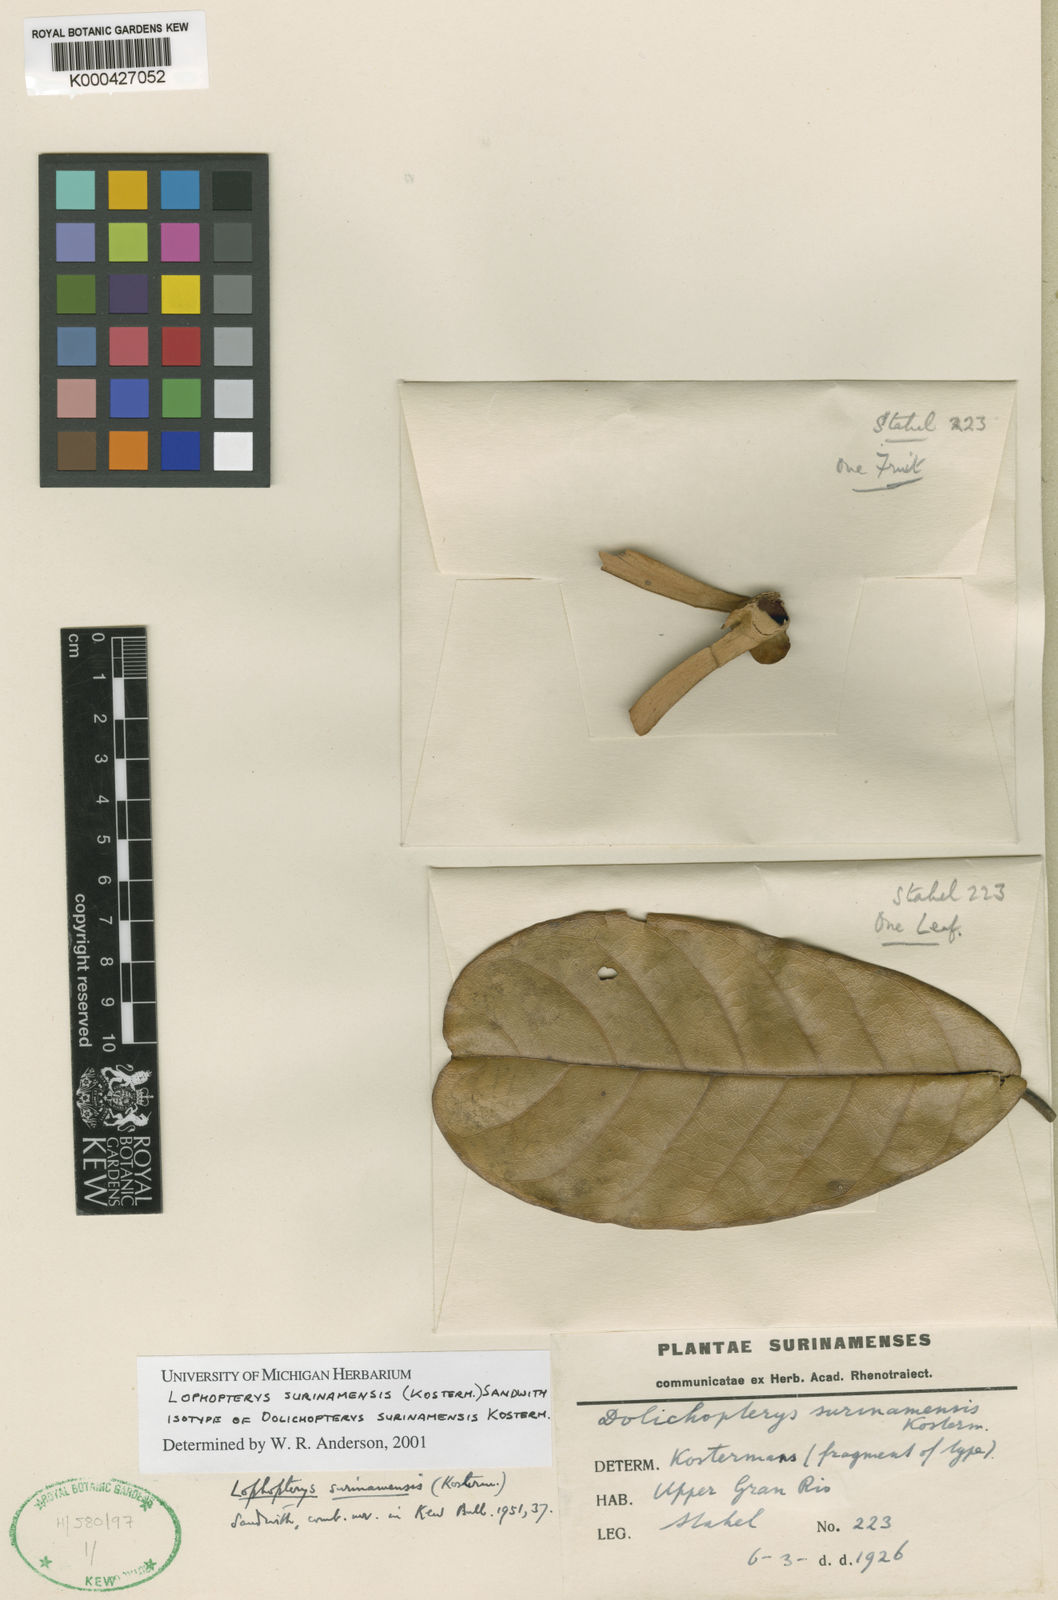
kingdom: Plantae
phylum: Tracheophyta
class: Magnoliopsida
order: Malpighiales
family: Malpighiaceae
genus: Lophopterys
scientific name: Lophopterys surinamensis
